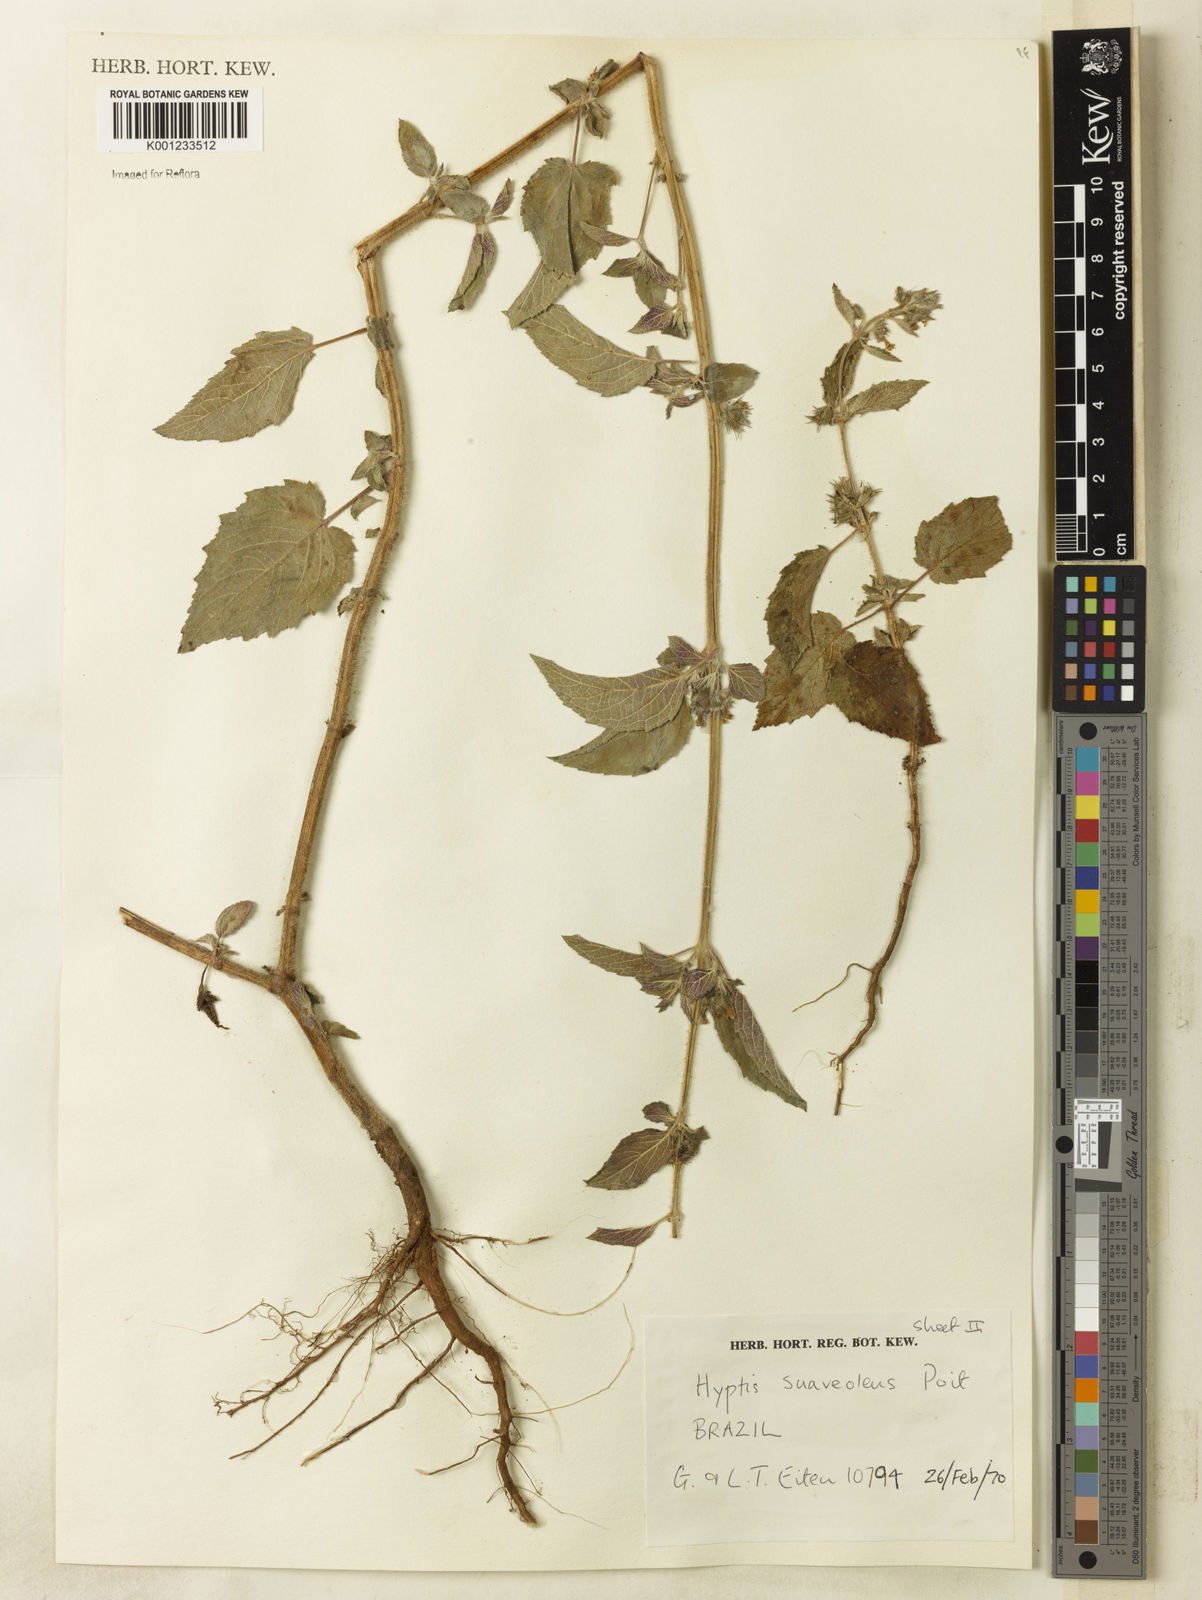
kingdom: Plantae
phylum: Tracheophyta
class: Magnoliopsida
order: Lamiales
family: Lamiaceae
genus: Mesosphaerum
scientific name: Mesosphaerum suaveolens
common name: Pignut
